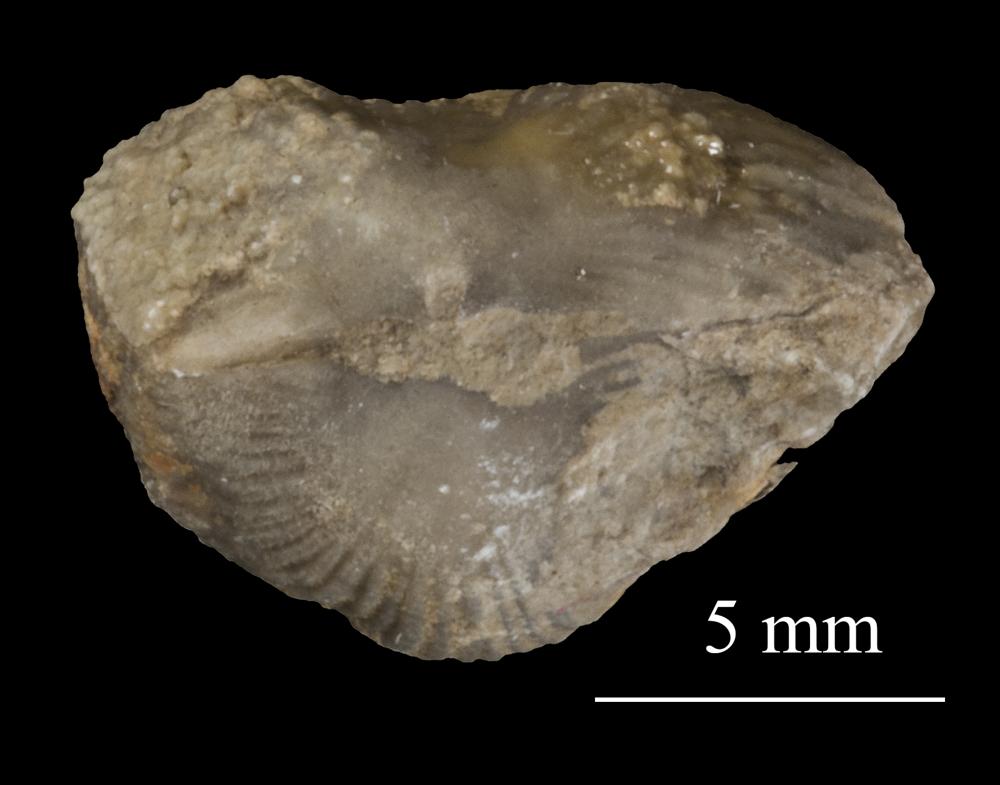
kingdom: Animalia
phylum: Brachiopoda
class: Rhynchonellata
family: Triplesiidae
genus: Cliftonia
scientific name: Cliftonia
